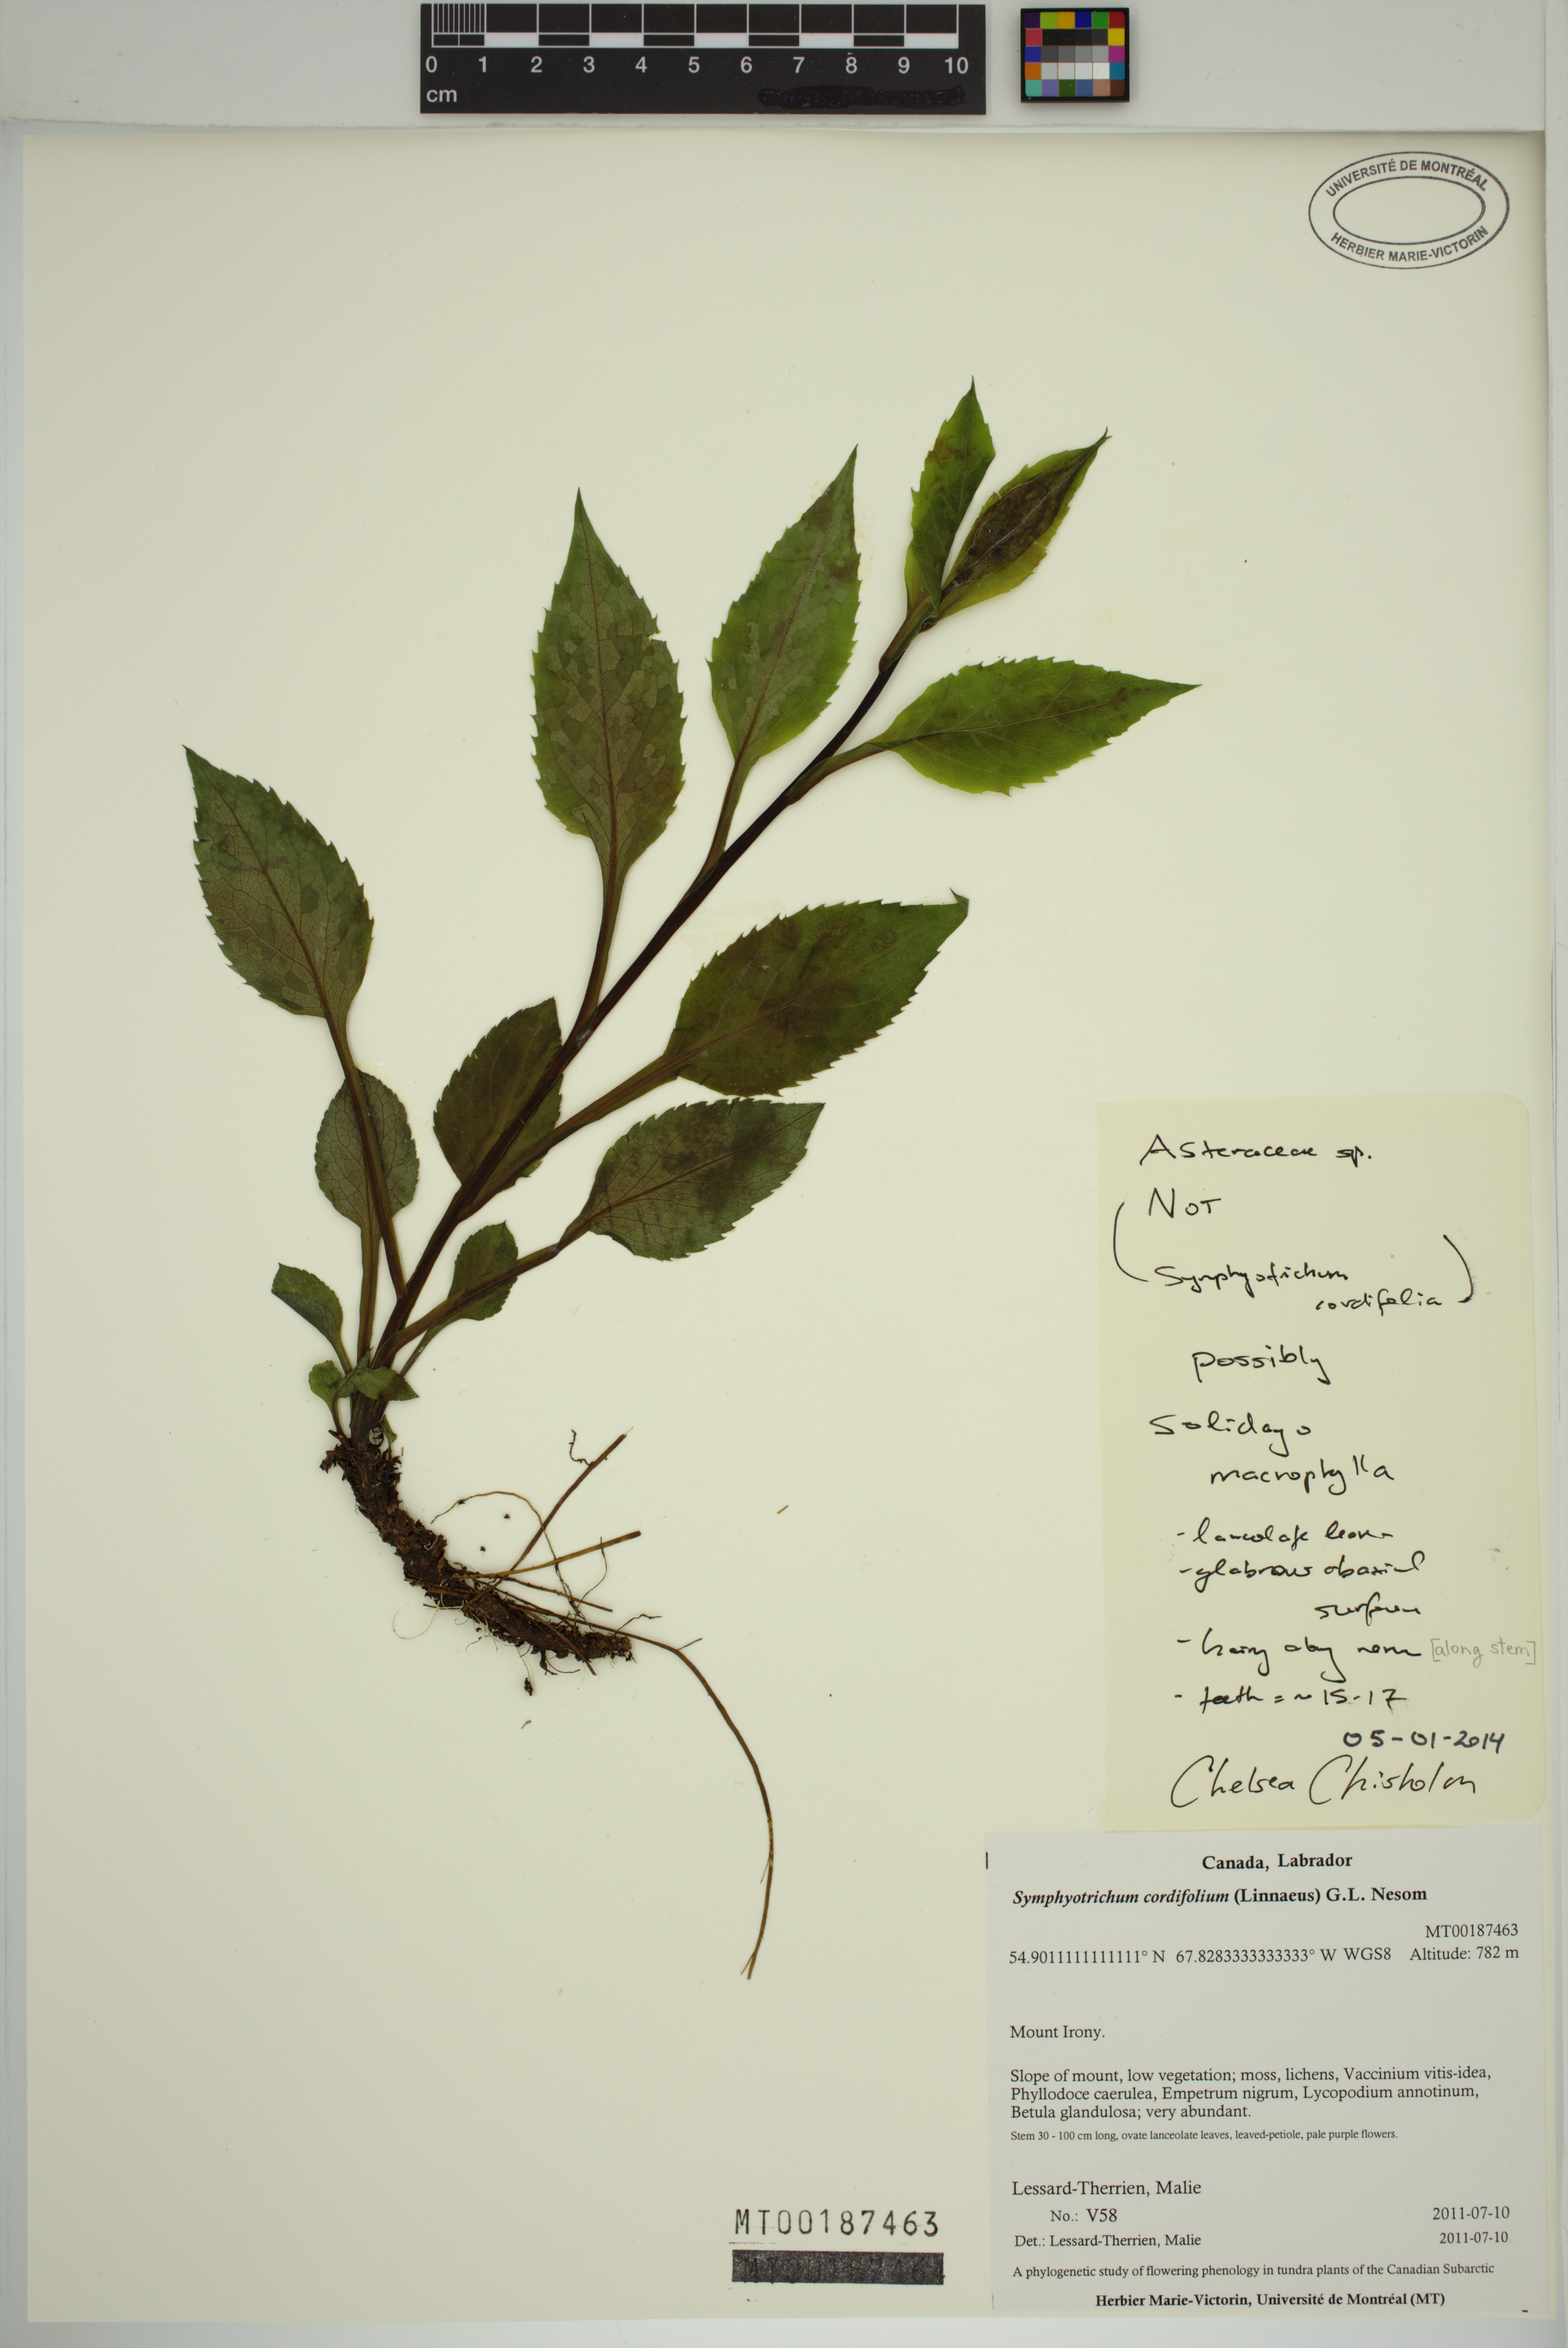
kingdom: Plantae
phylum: Tracheophyta
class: Magnoliopsida
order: Asterales
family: Asteraceae
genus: Solidago
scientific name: Solidago macrophylla
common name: Large-leaved goldenrod
